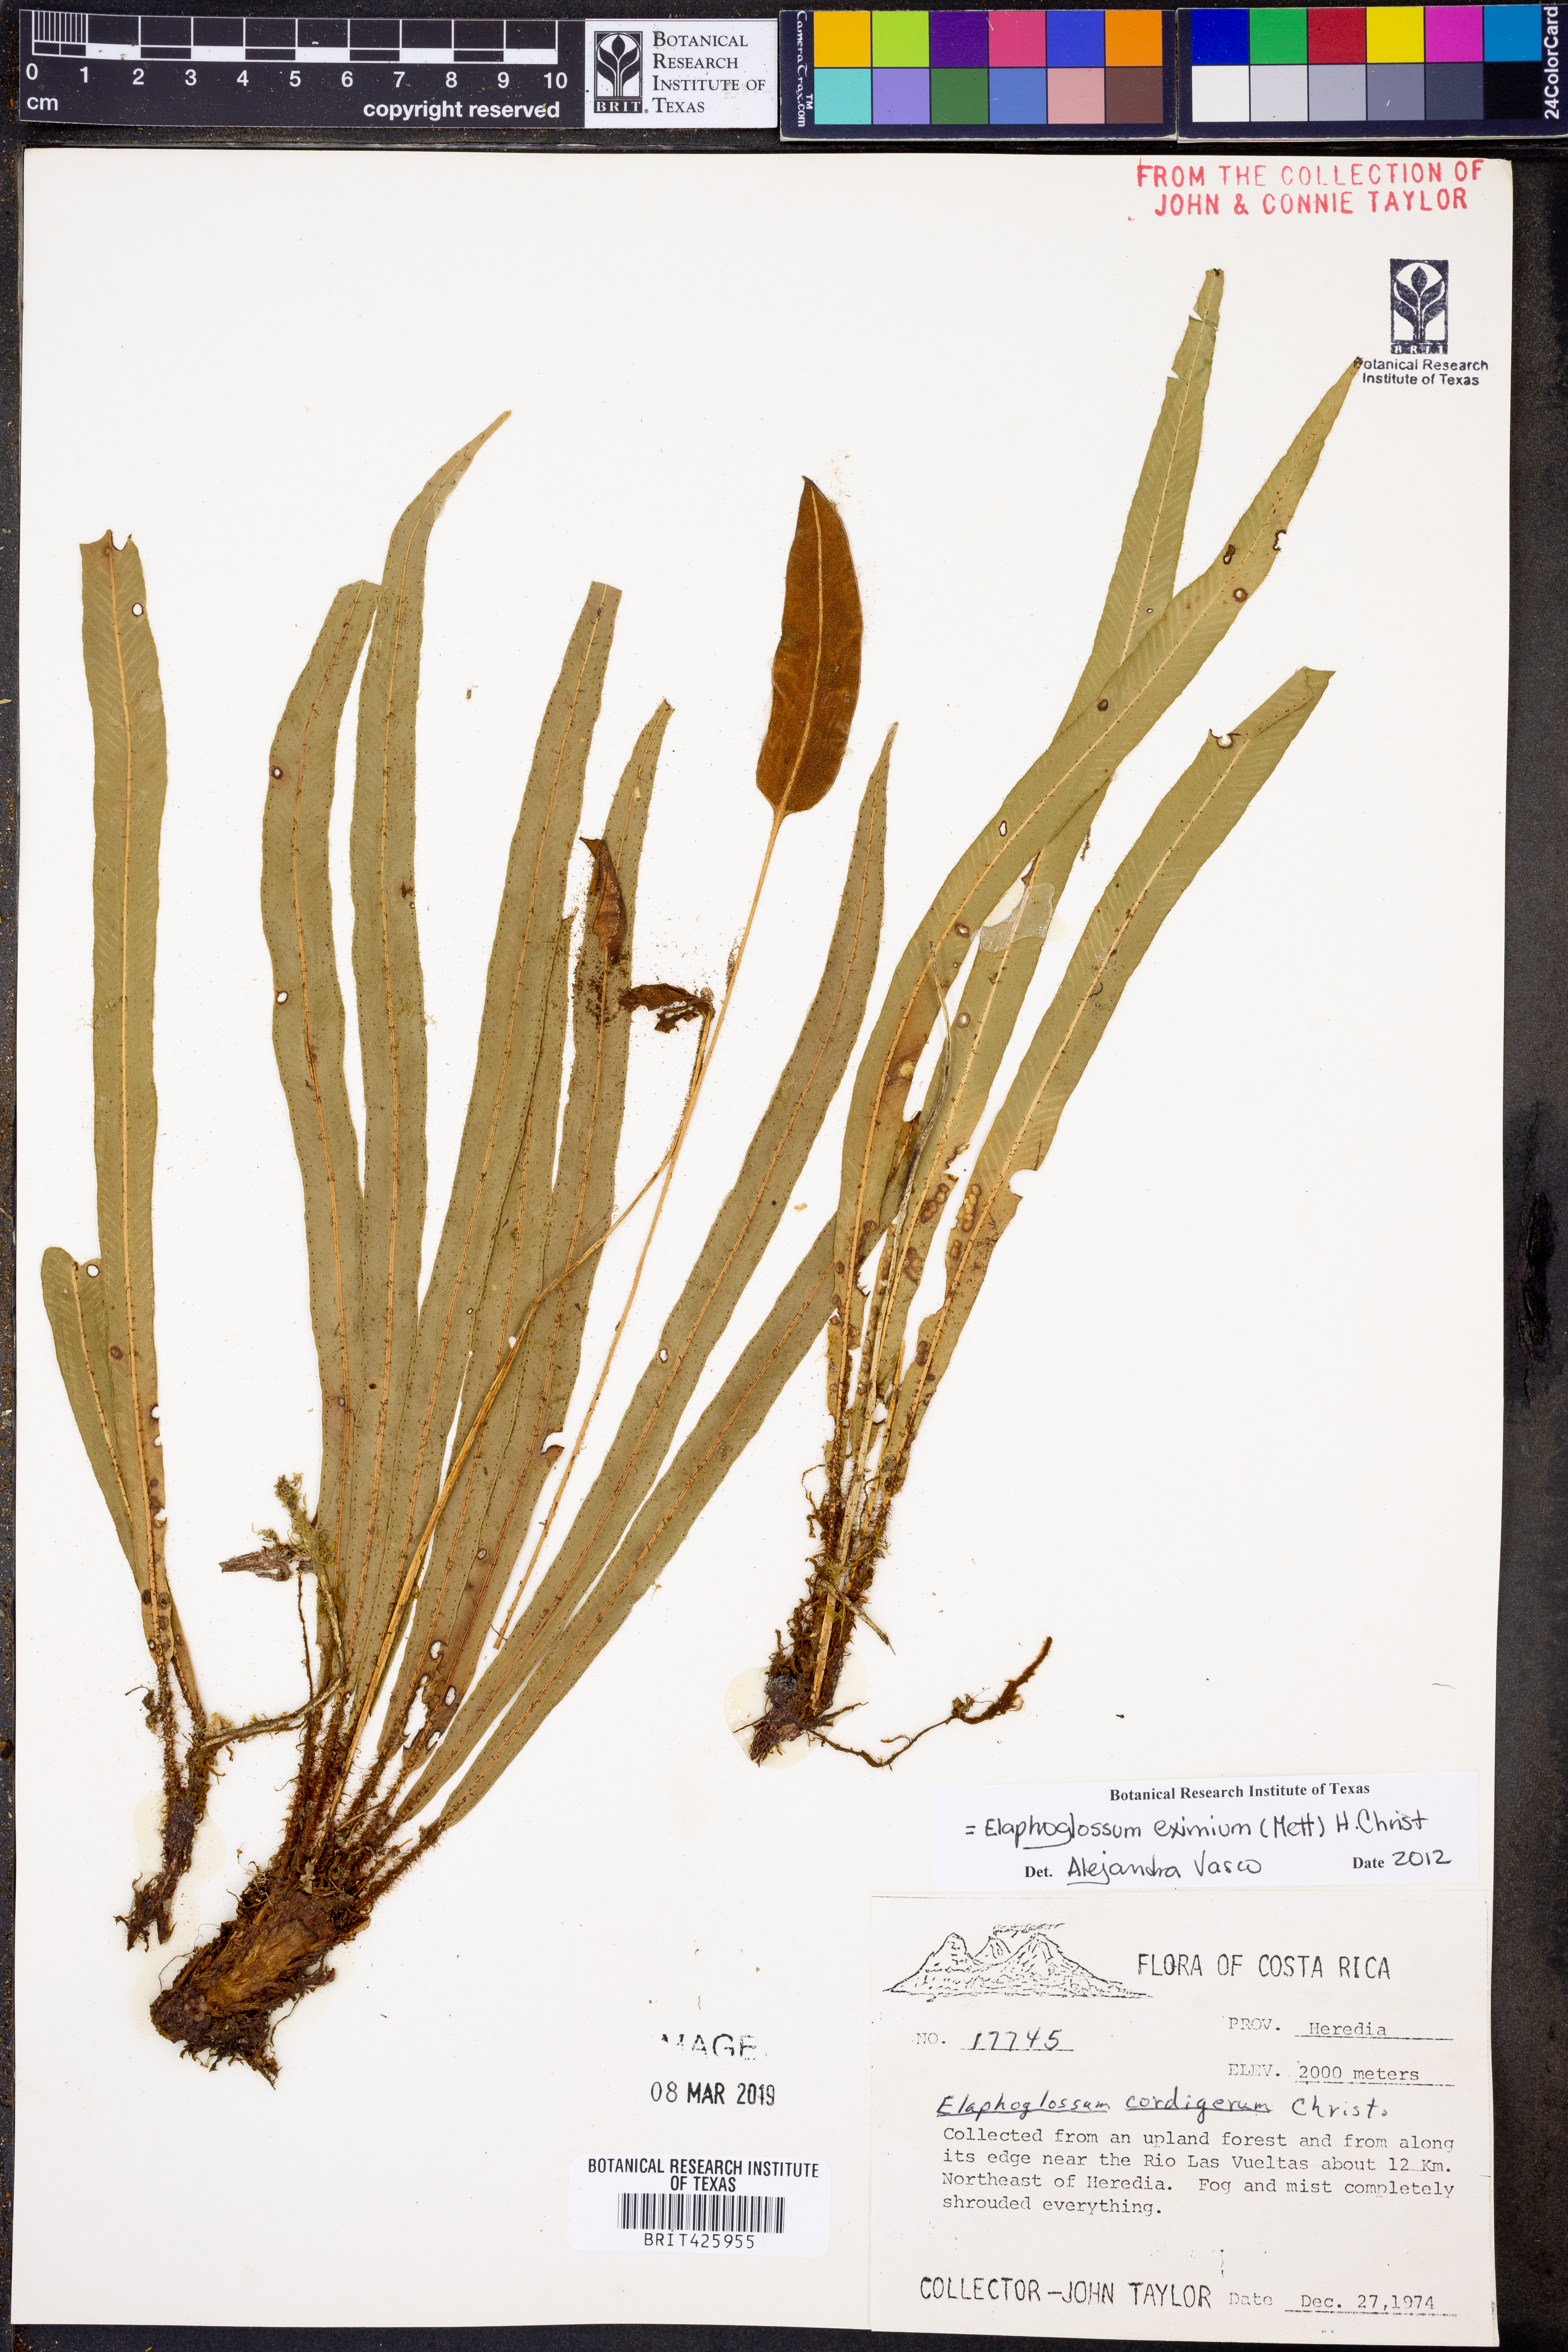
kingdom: Plantae
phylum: Tracheophyta
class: Polypodiopsida
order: Polypodiales
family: Dryopteridaceae
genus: Elaphoglossum
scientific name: Elaphoglossum eximium
